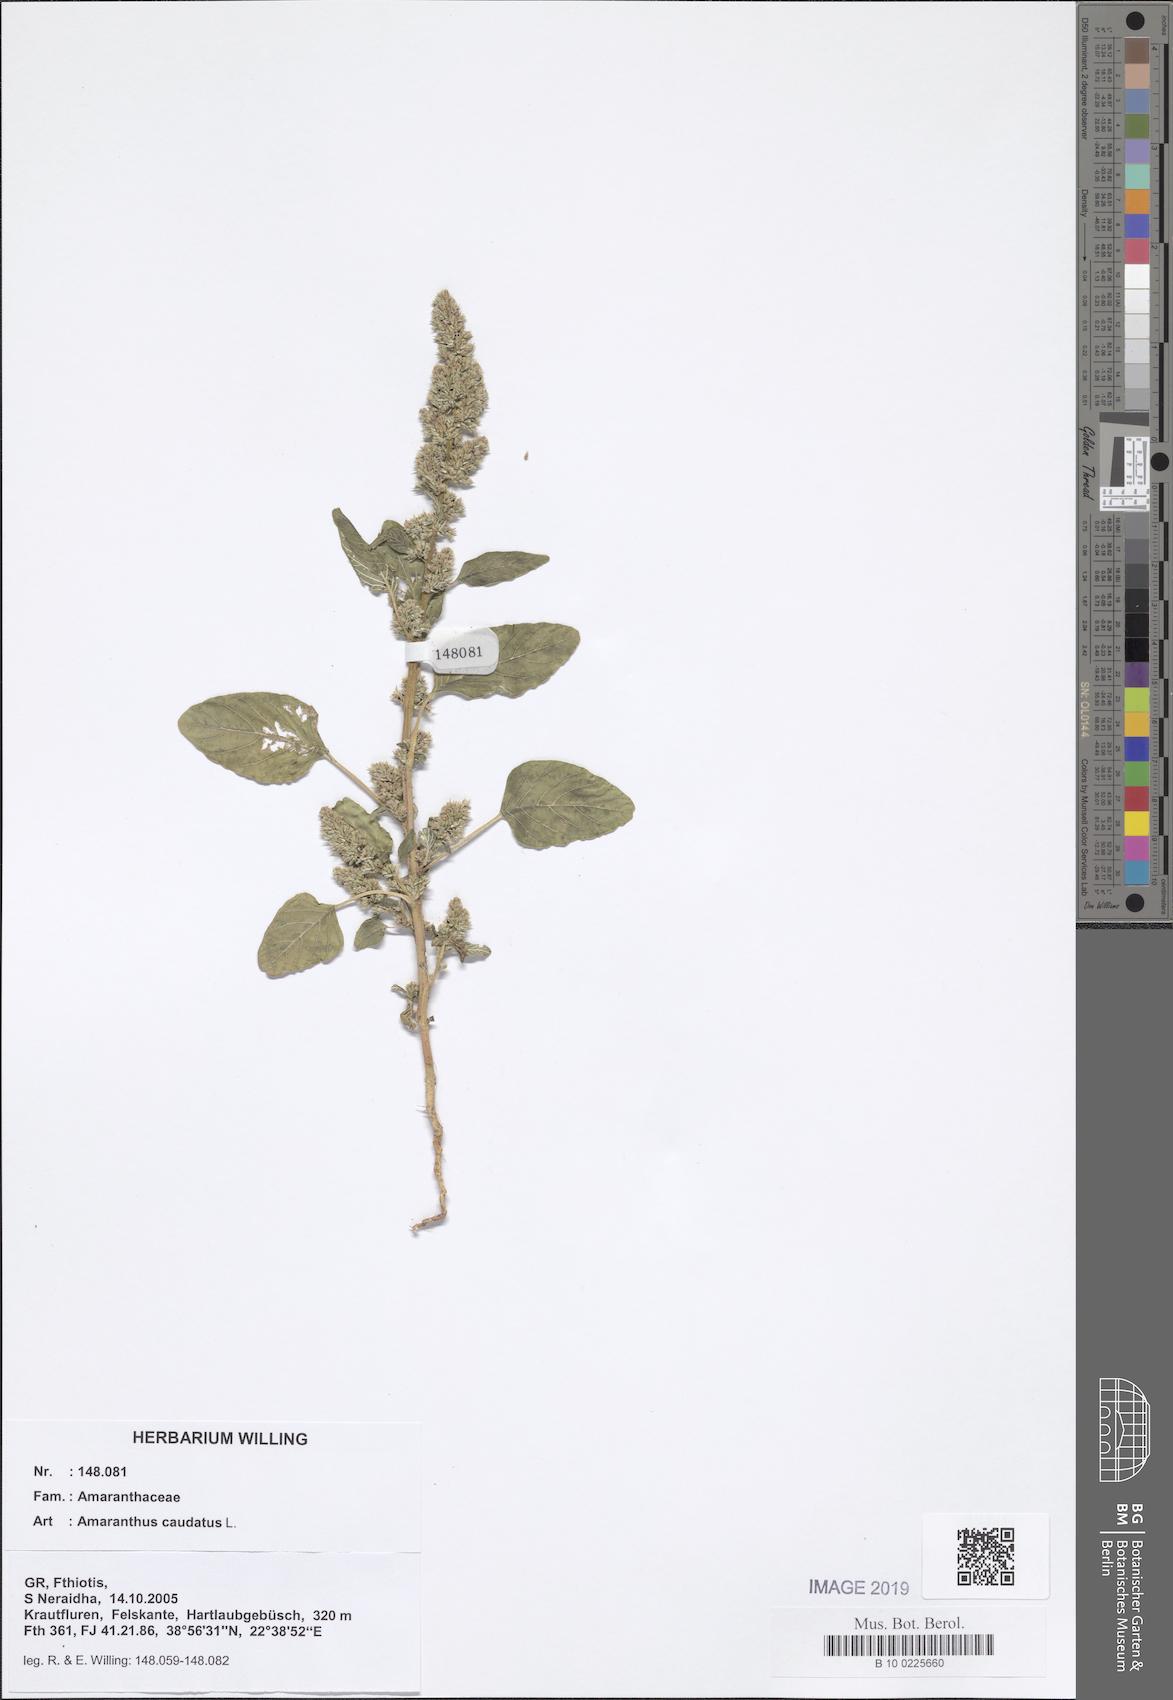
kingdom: Plantae
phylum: Tracheophyta
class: Magnoliopsida
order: Caryophyllales
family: Amaranthaceae
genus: Amaranthus
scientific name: Amaranthus caudatus
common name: Love-lies-bleeding
